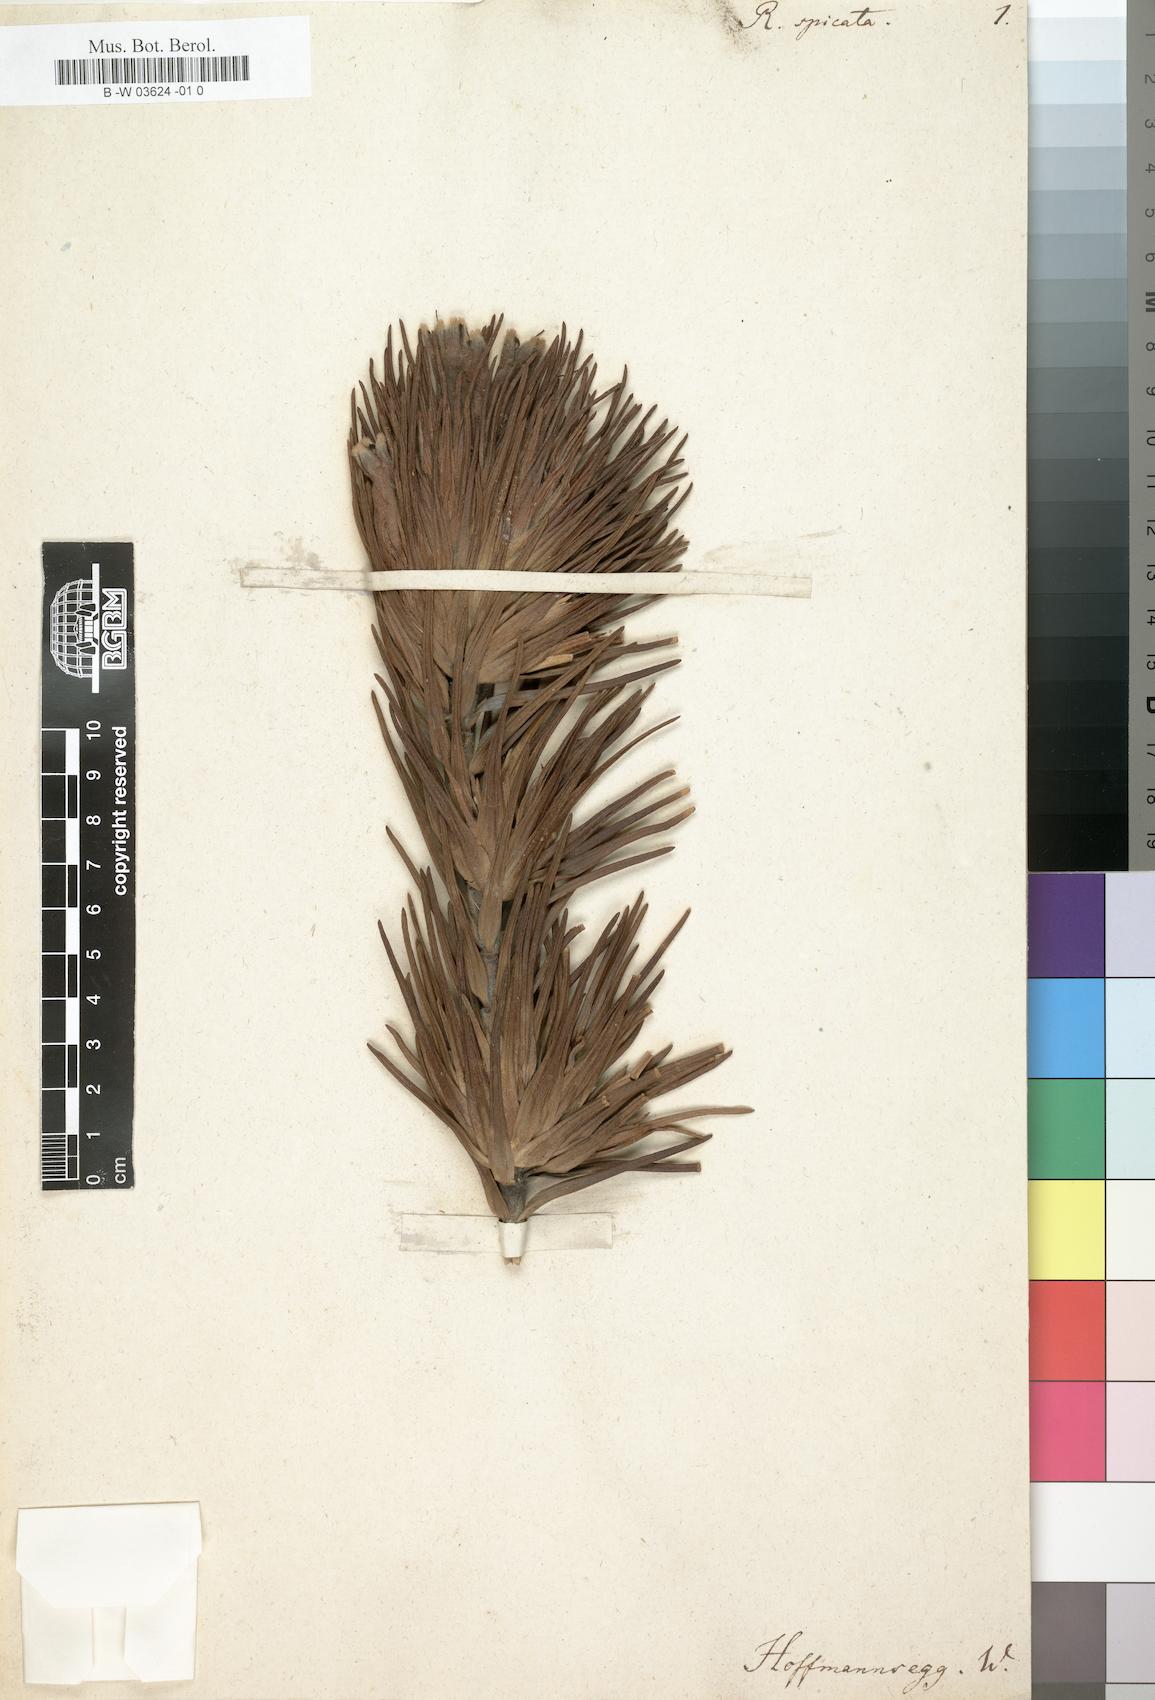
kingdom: Plantae
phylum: Tracheophyta
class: Magnoliopsida
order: Lamiales
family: Stilbaceae
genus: Retzia
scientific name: Retzia capensis
